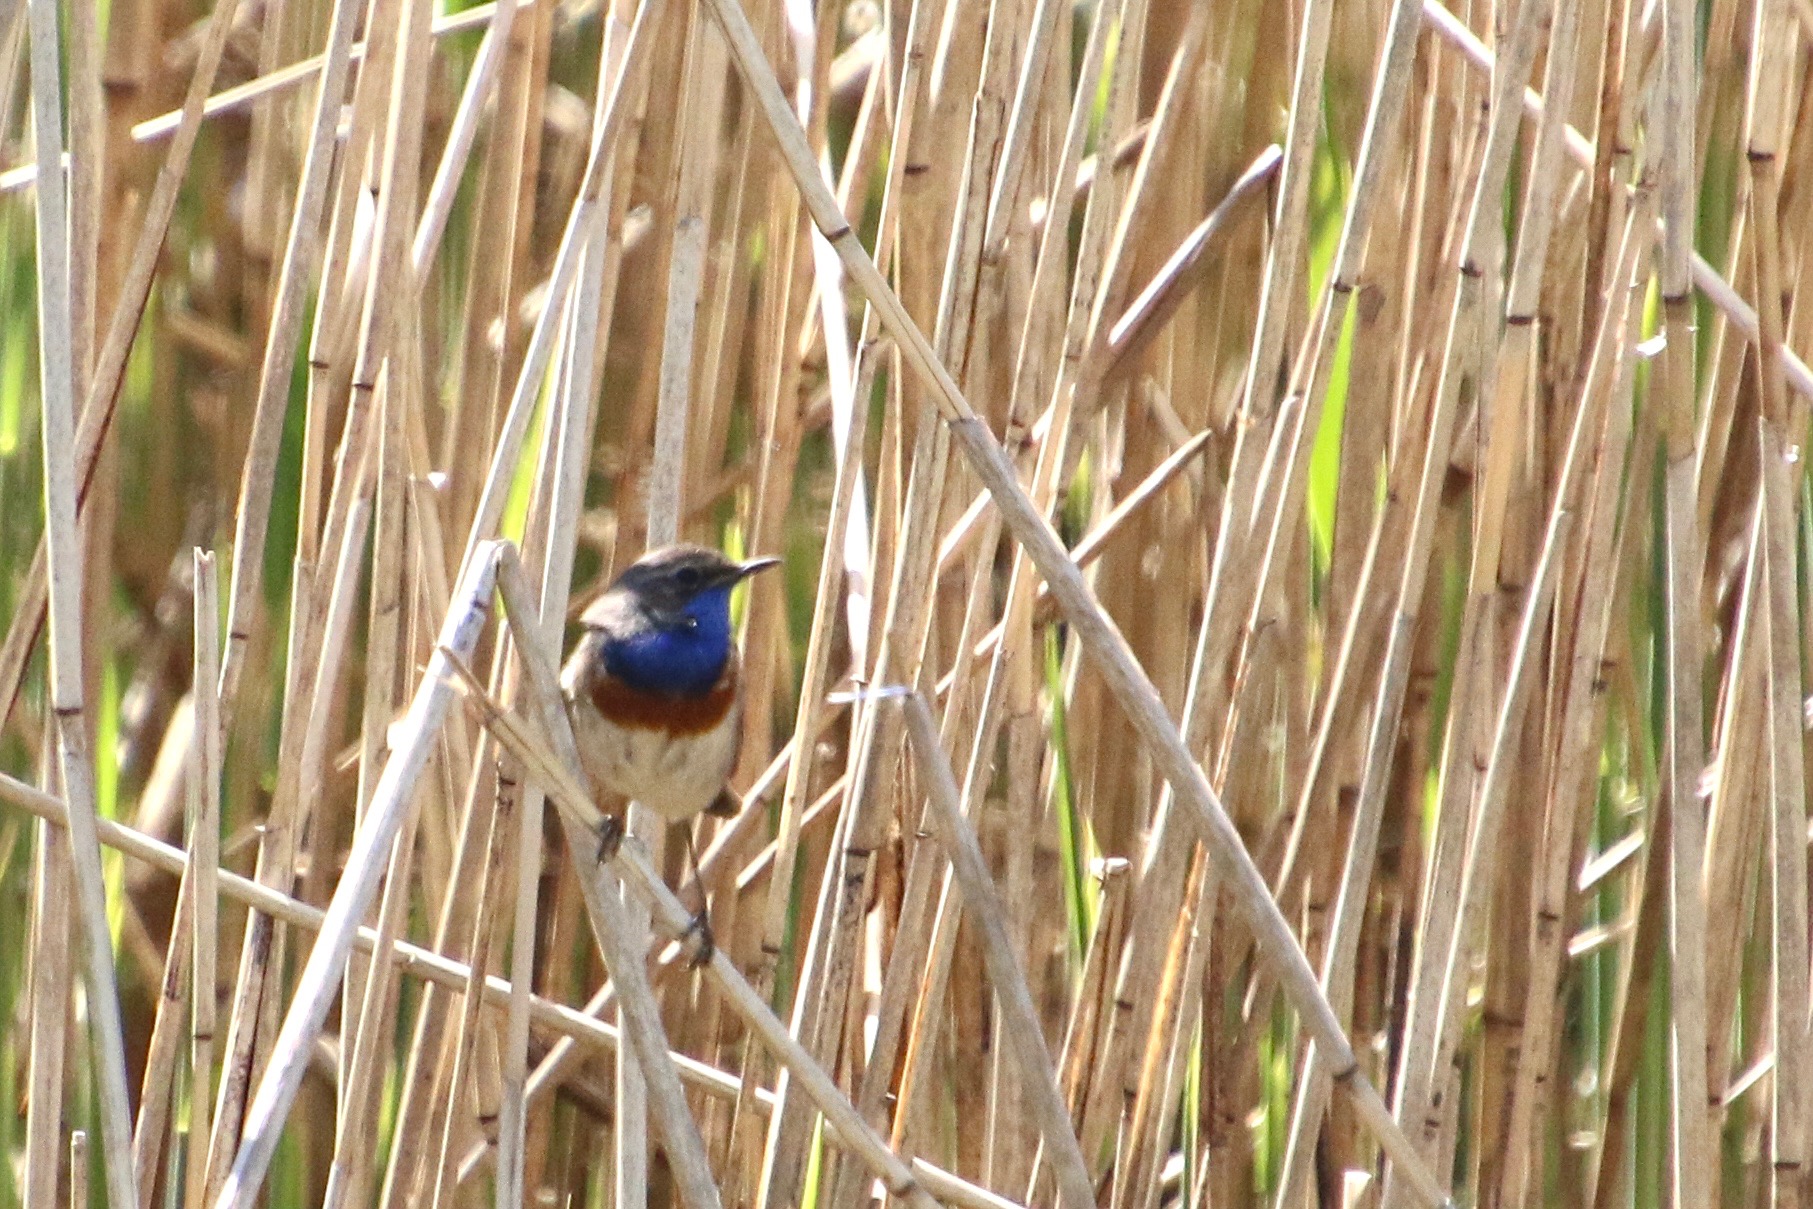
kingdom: Animalia
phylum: Chordata
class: Aves
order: Passeriformes
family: Muscicapidae
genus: Luscinia
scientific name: Luscinia svecica
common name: Blåhals
